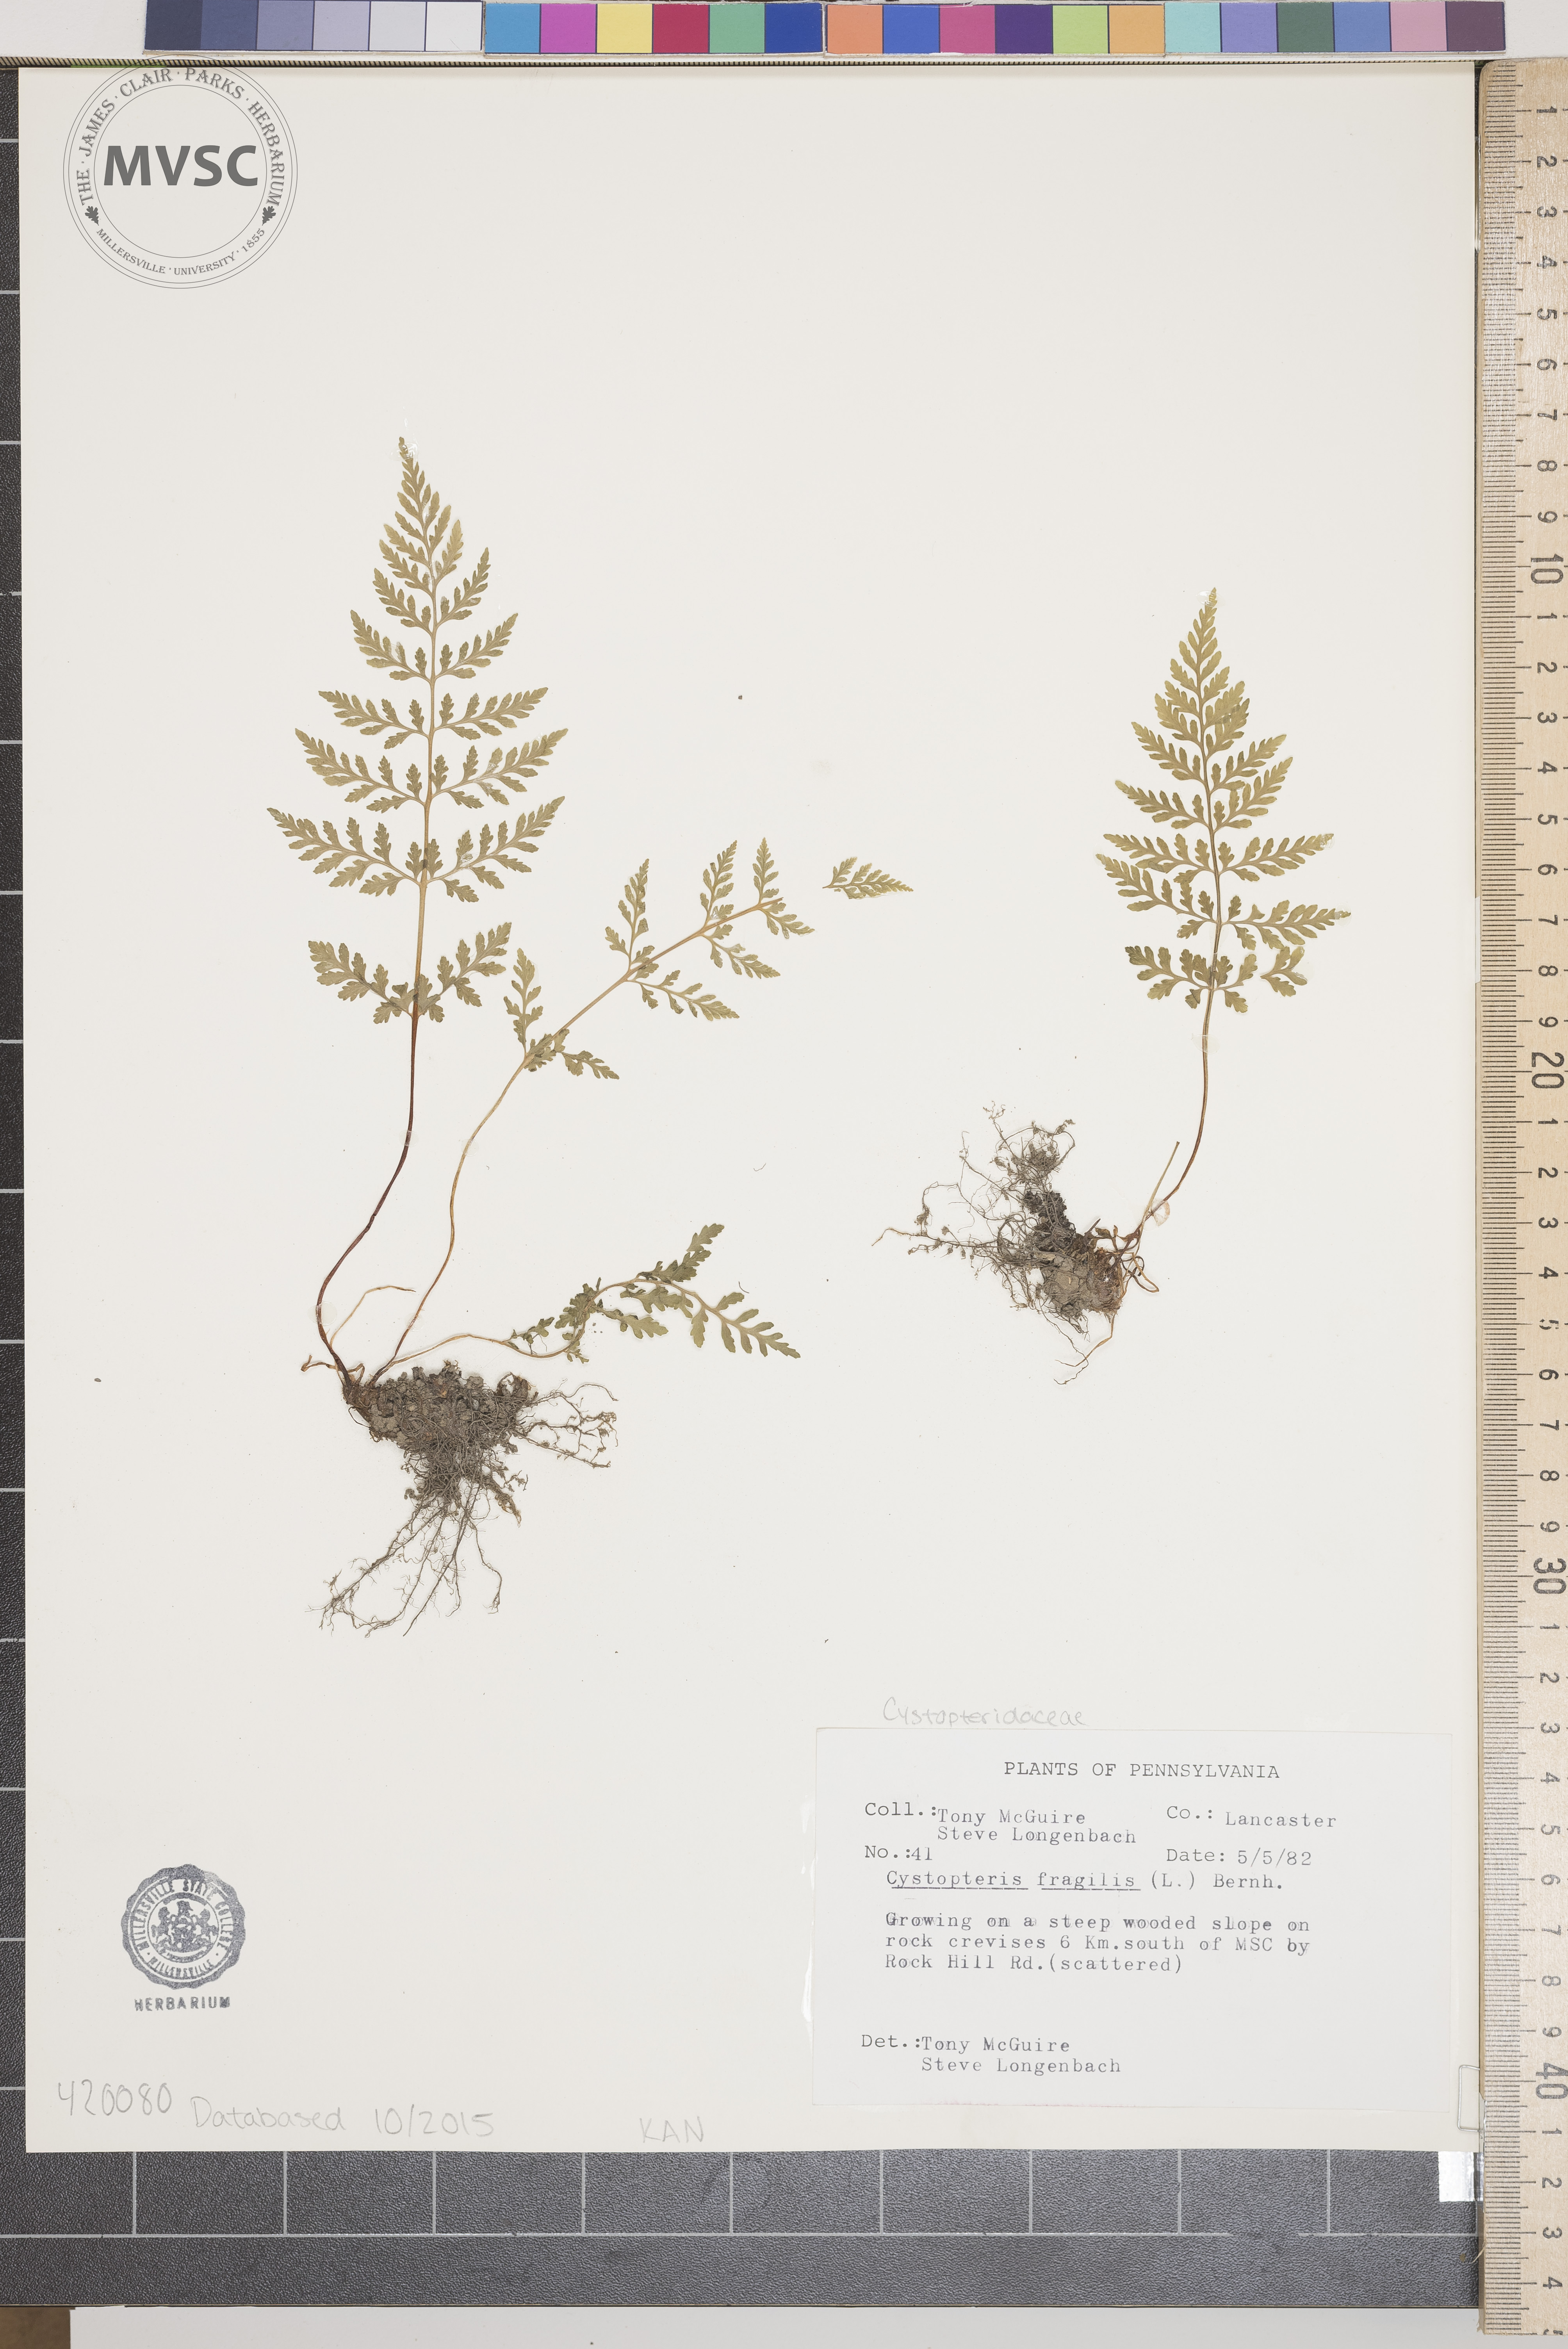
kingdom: Plantae
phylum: Tracheophyta
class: Polypodiopsida
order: Polypodiales
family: Cystopteridaceae
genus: Cystopteris
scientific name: Cystopteris tenuis
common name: Mackay's brittle fern
